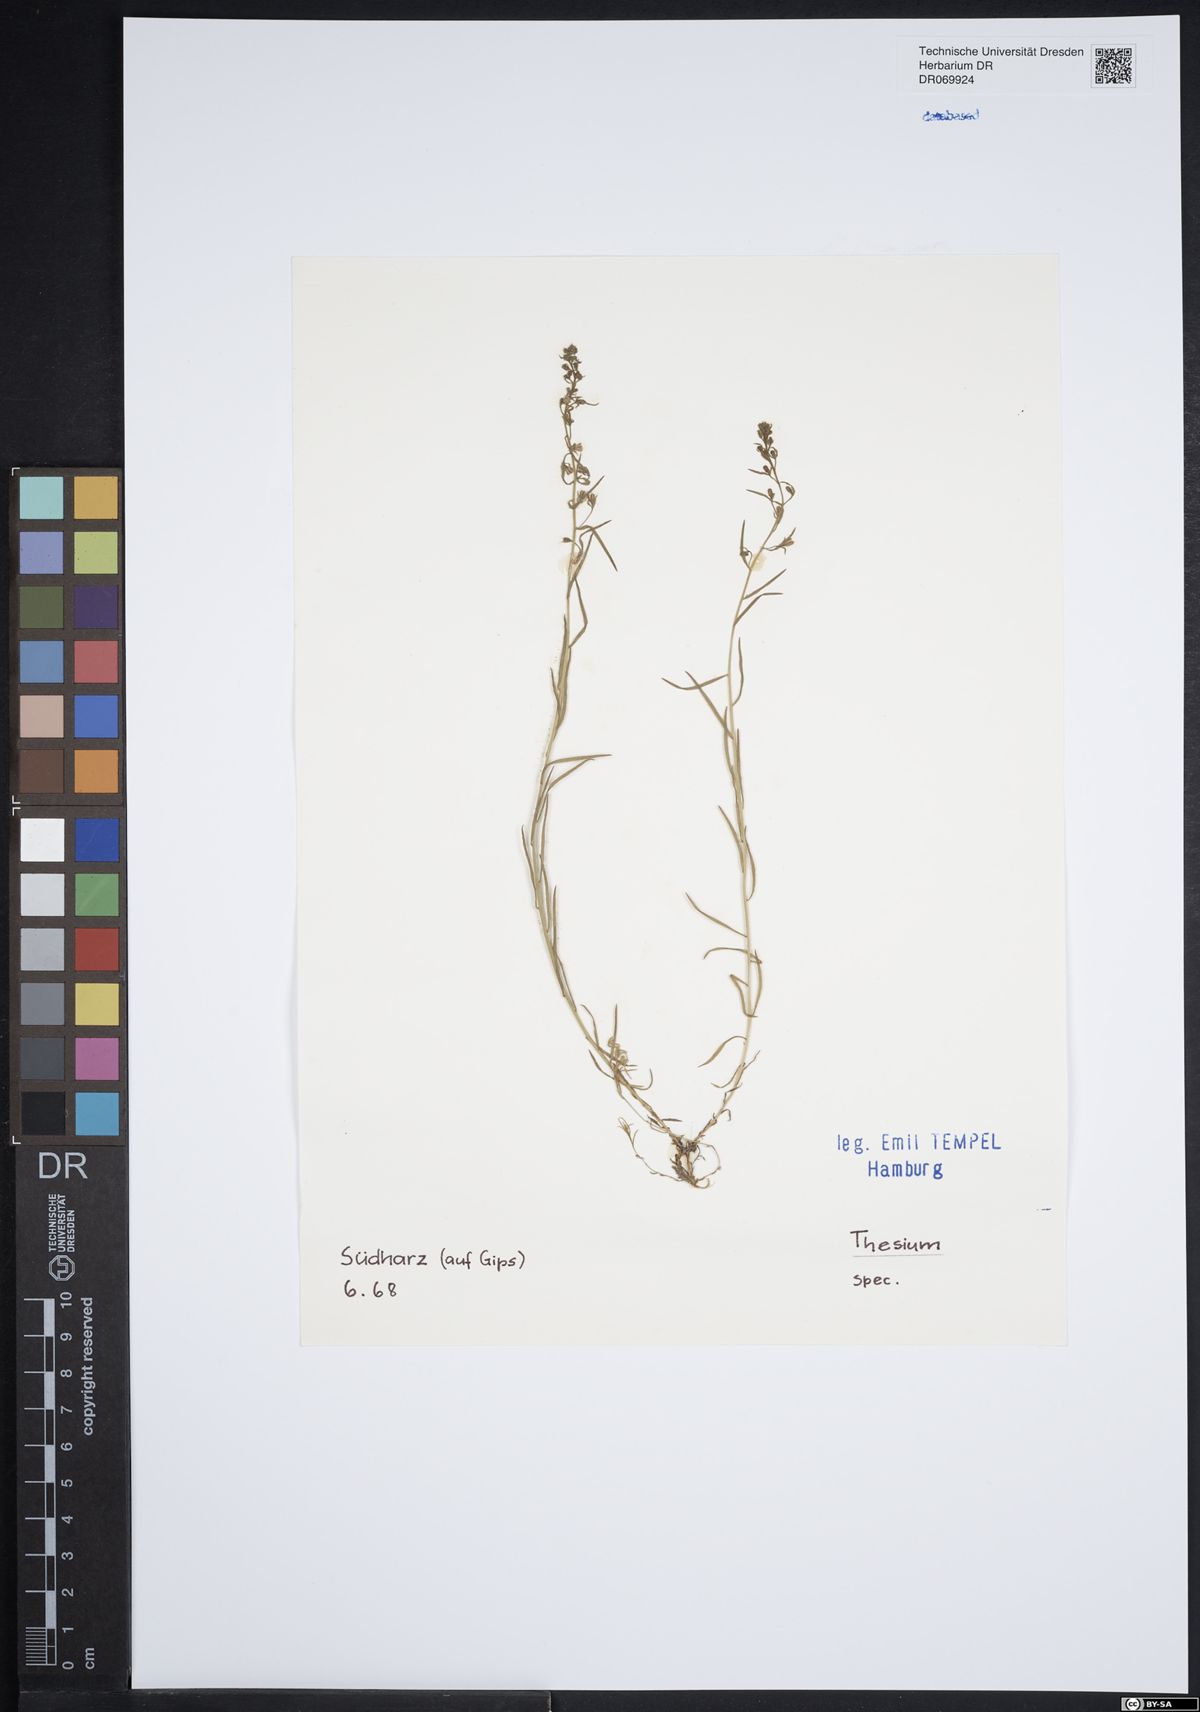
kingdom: Plantae
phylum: Tracheophyta
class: Magnoliopsida
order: Santalales
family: Thesiaceae
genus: Thesium
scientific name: Thesium
